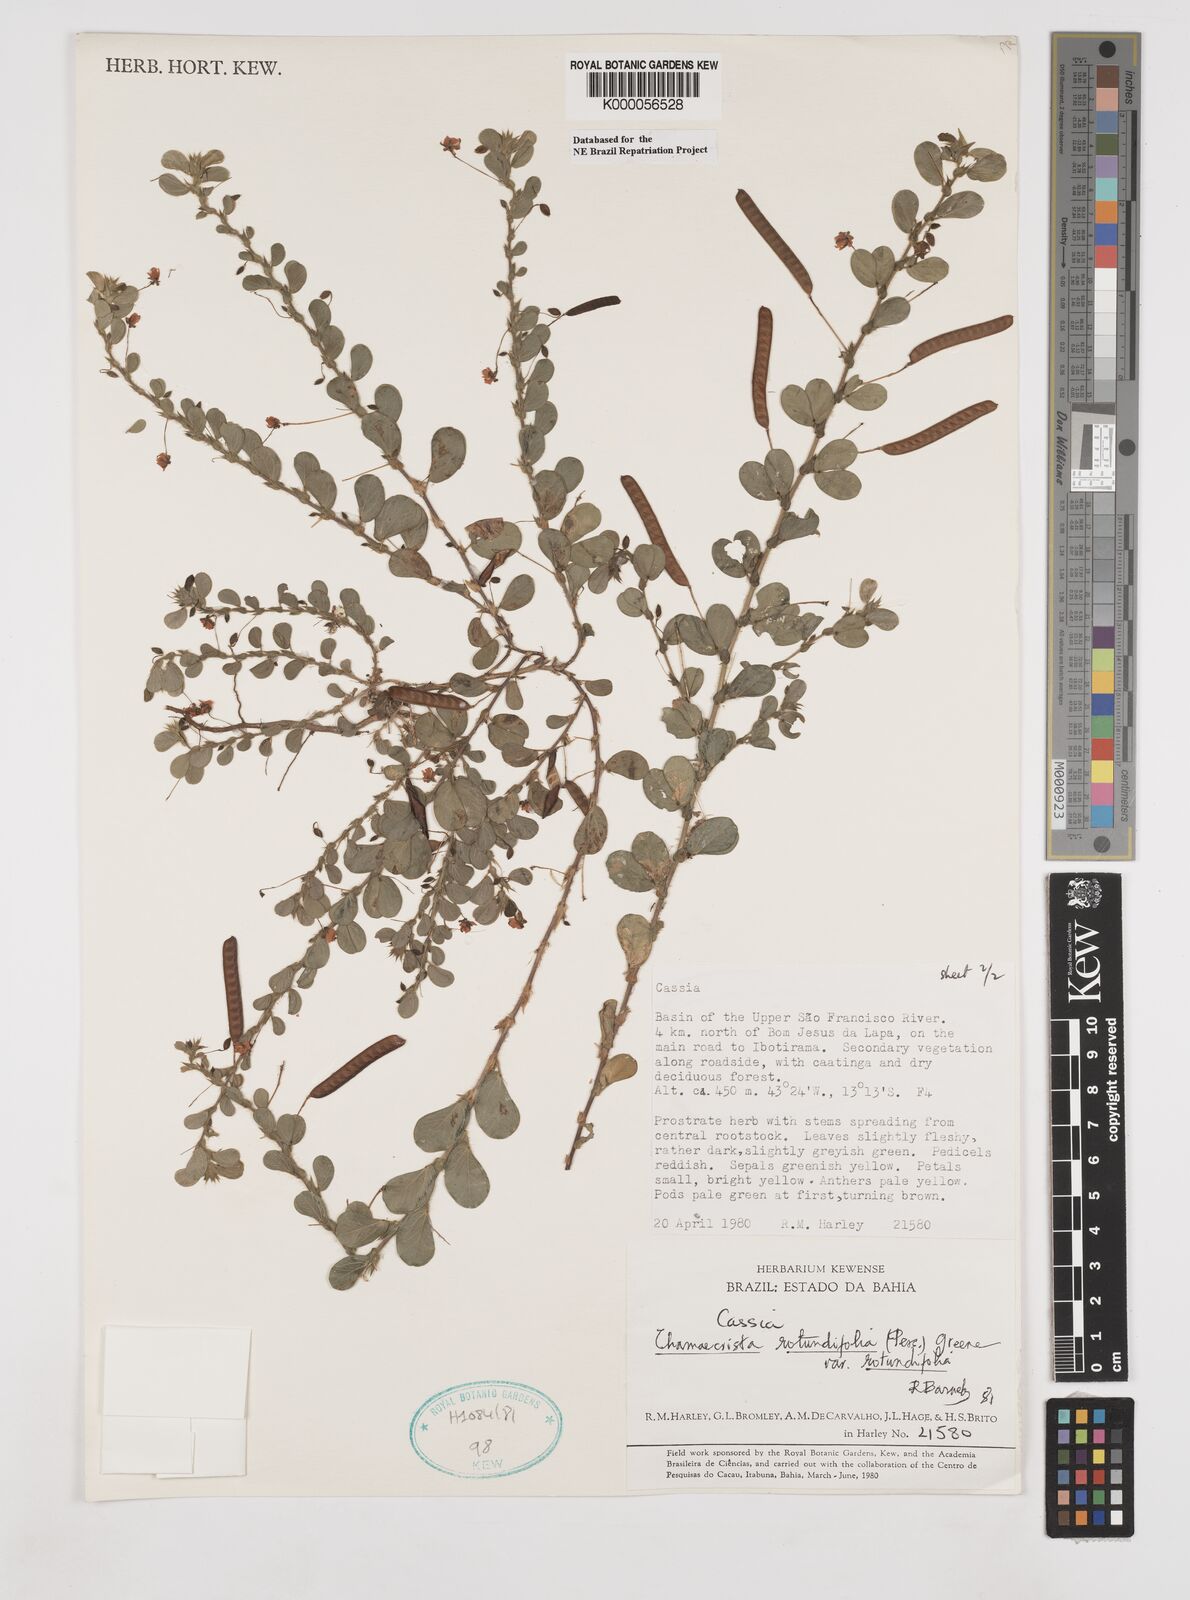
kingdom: Plantae
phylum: Tracheophyta
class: Magnoliopsida
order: Fabales
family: Fabaceae
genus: Chamaecrista
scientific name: Chamaecrista rotundifolia
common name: Round-leaf cassia
